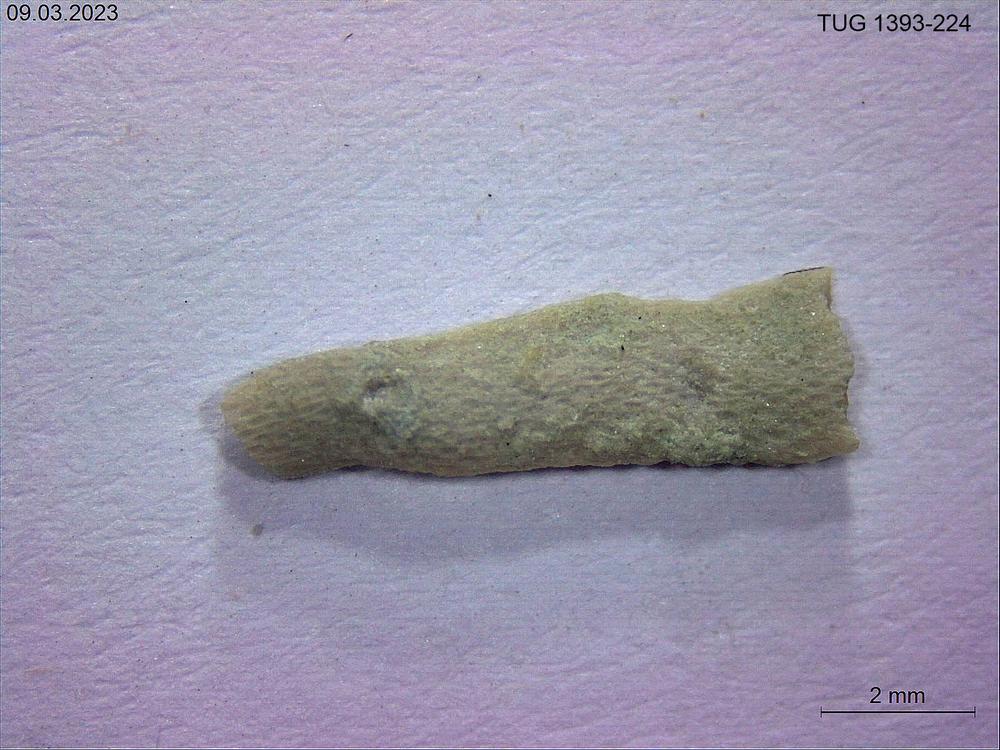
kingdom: Animalia
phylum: Bryozoa
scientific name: Bryozoa
